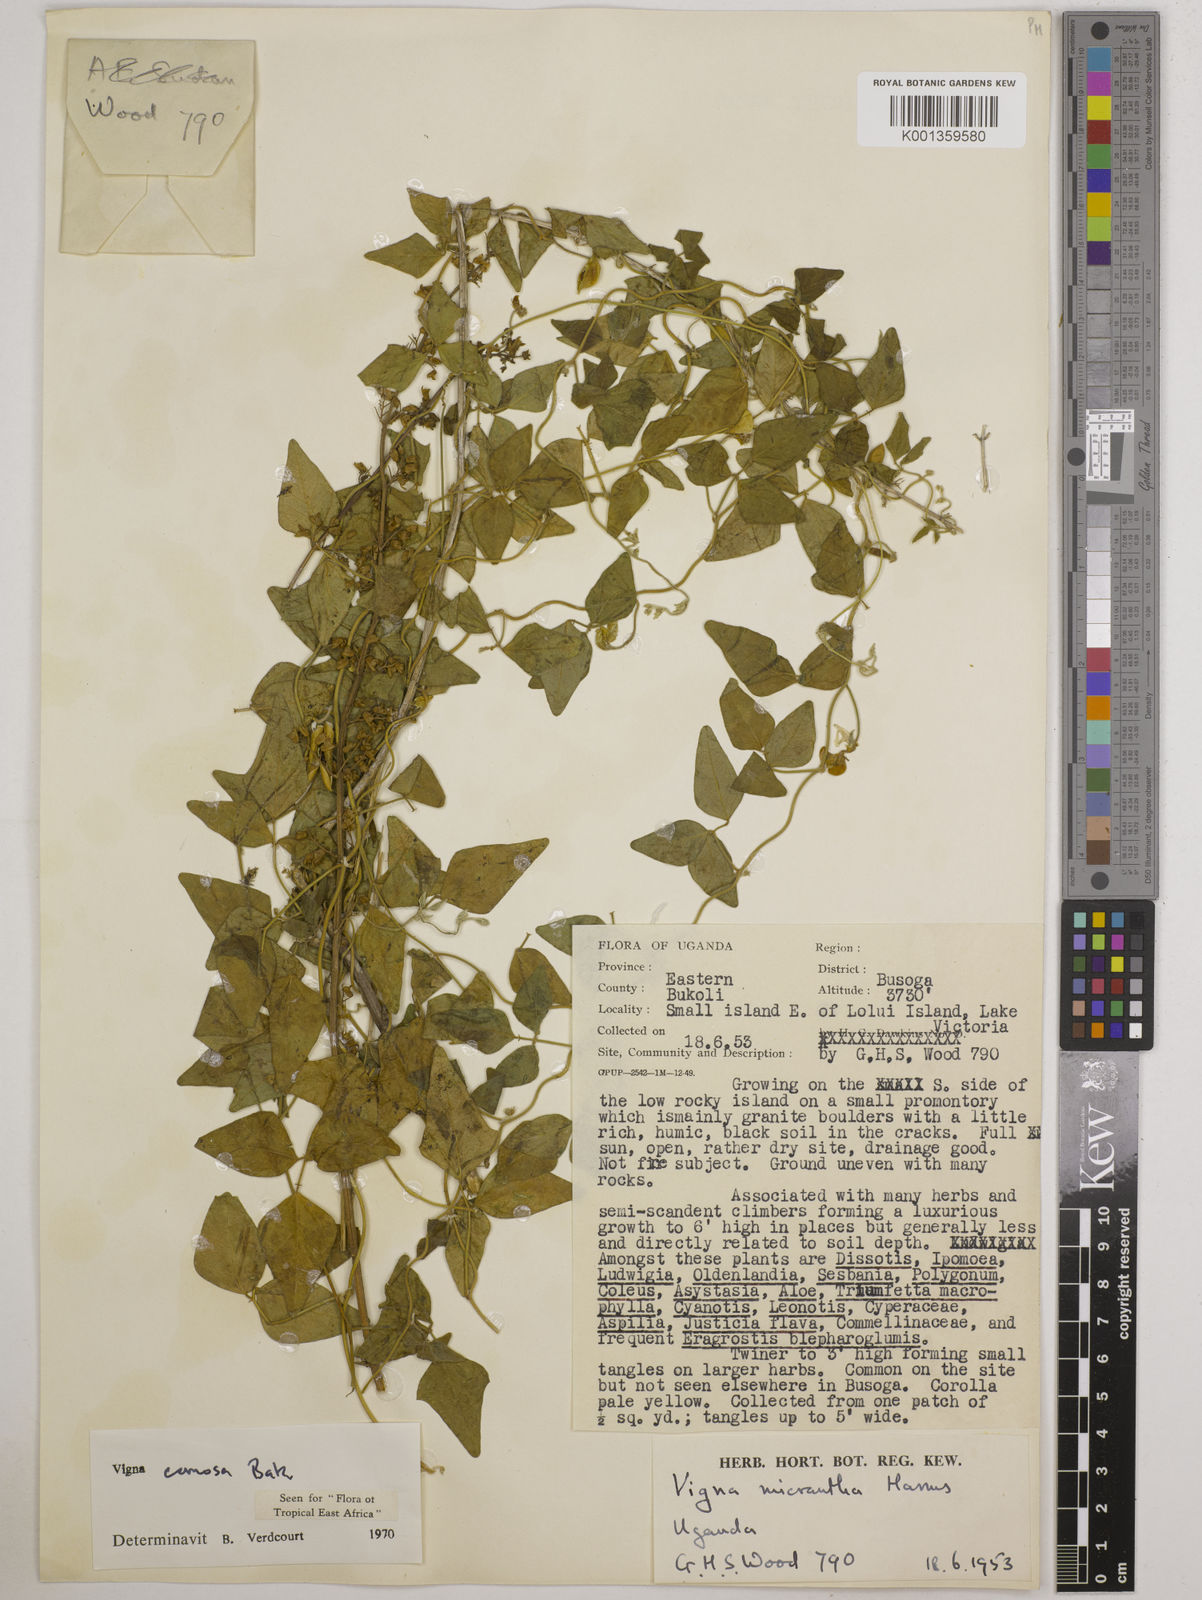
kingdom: Plantae
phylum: Tracheophyta
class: Magnoliopsida
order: Fabales
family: Fabaceae
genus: Vigna
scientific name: Vigna comosa
